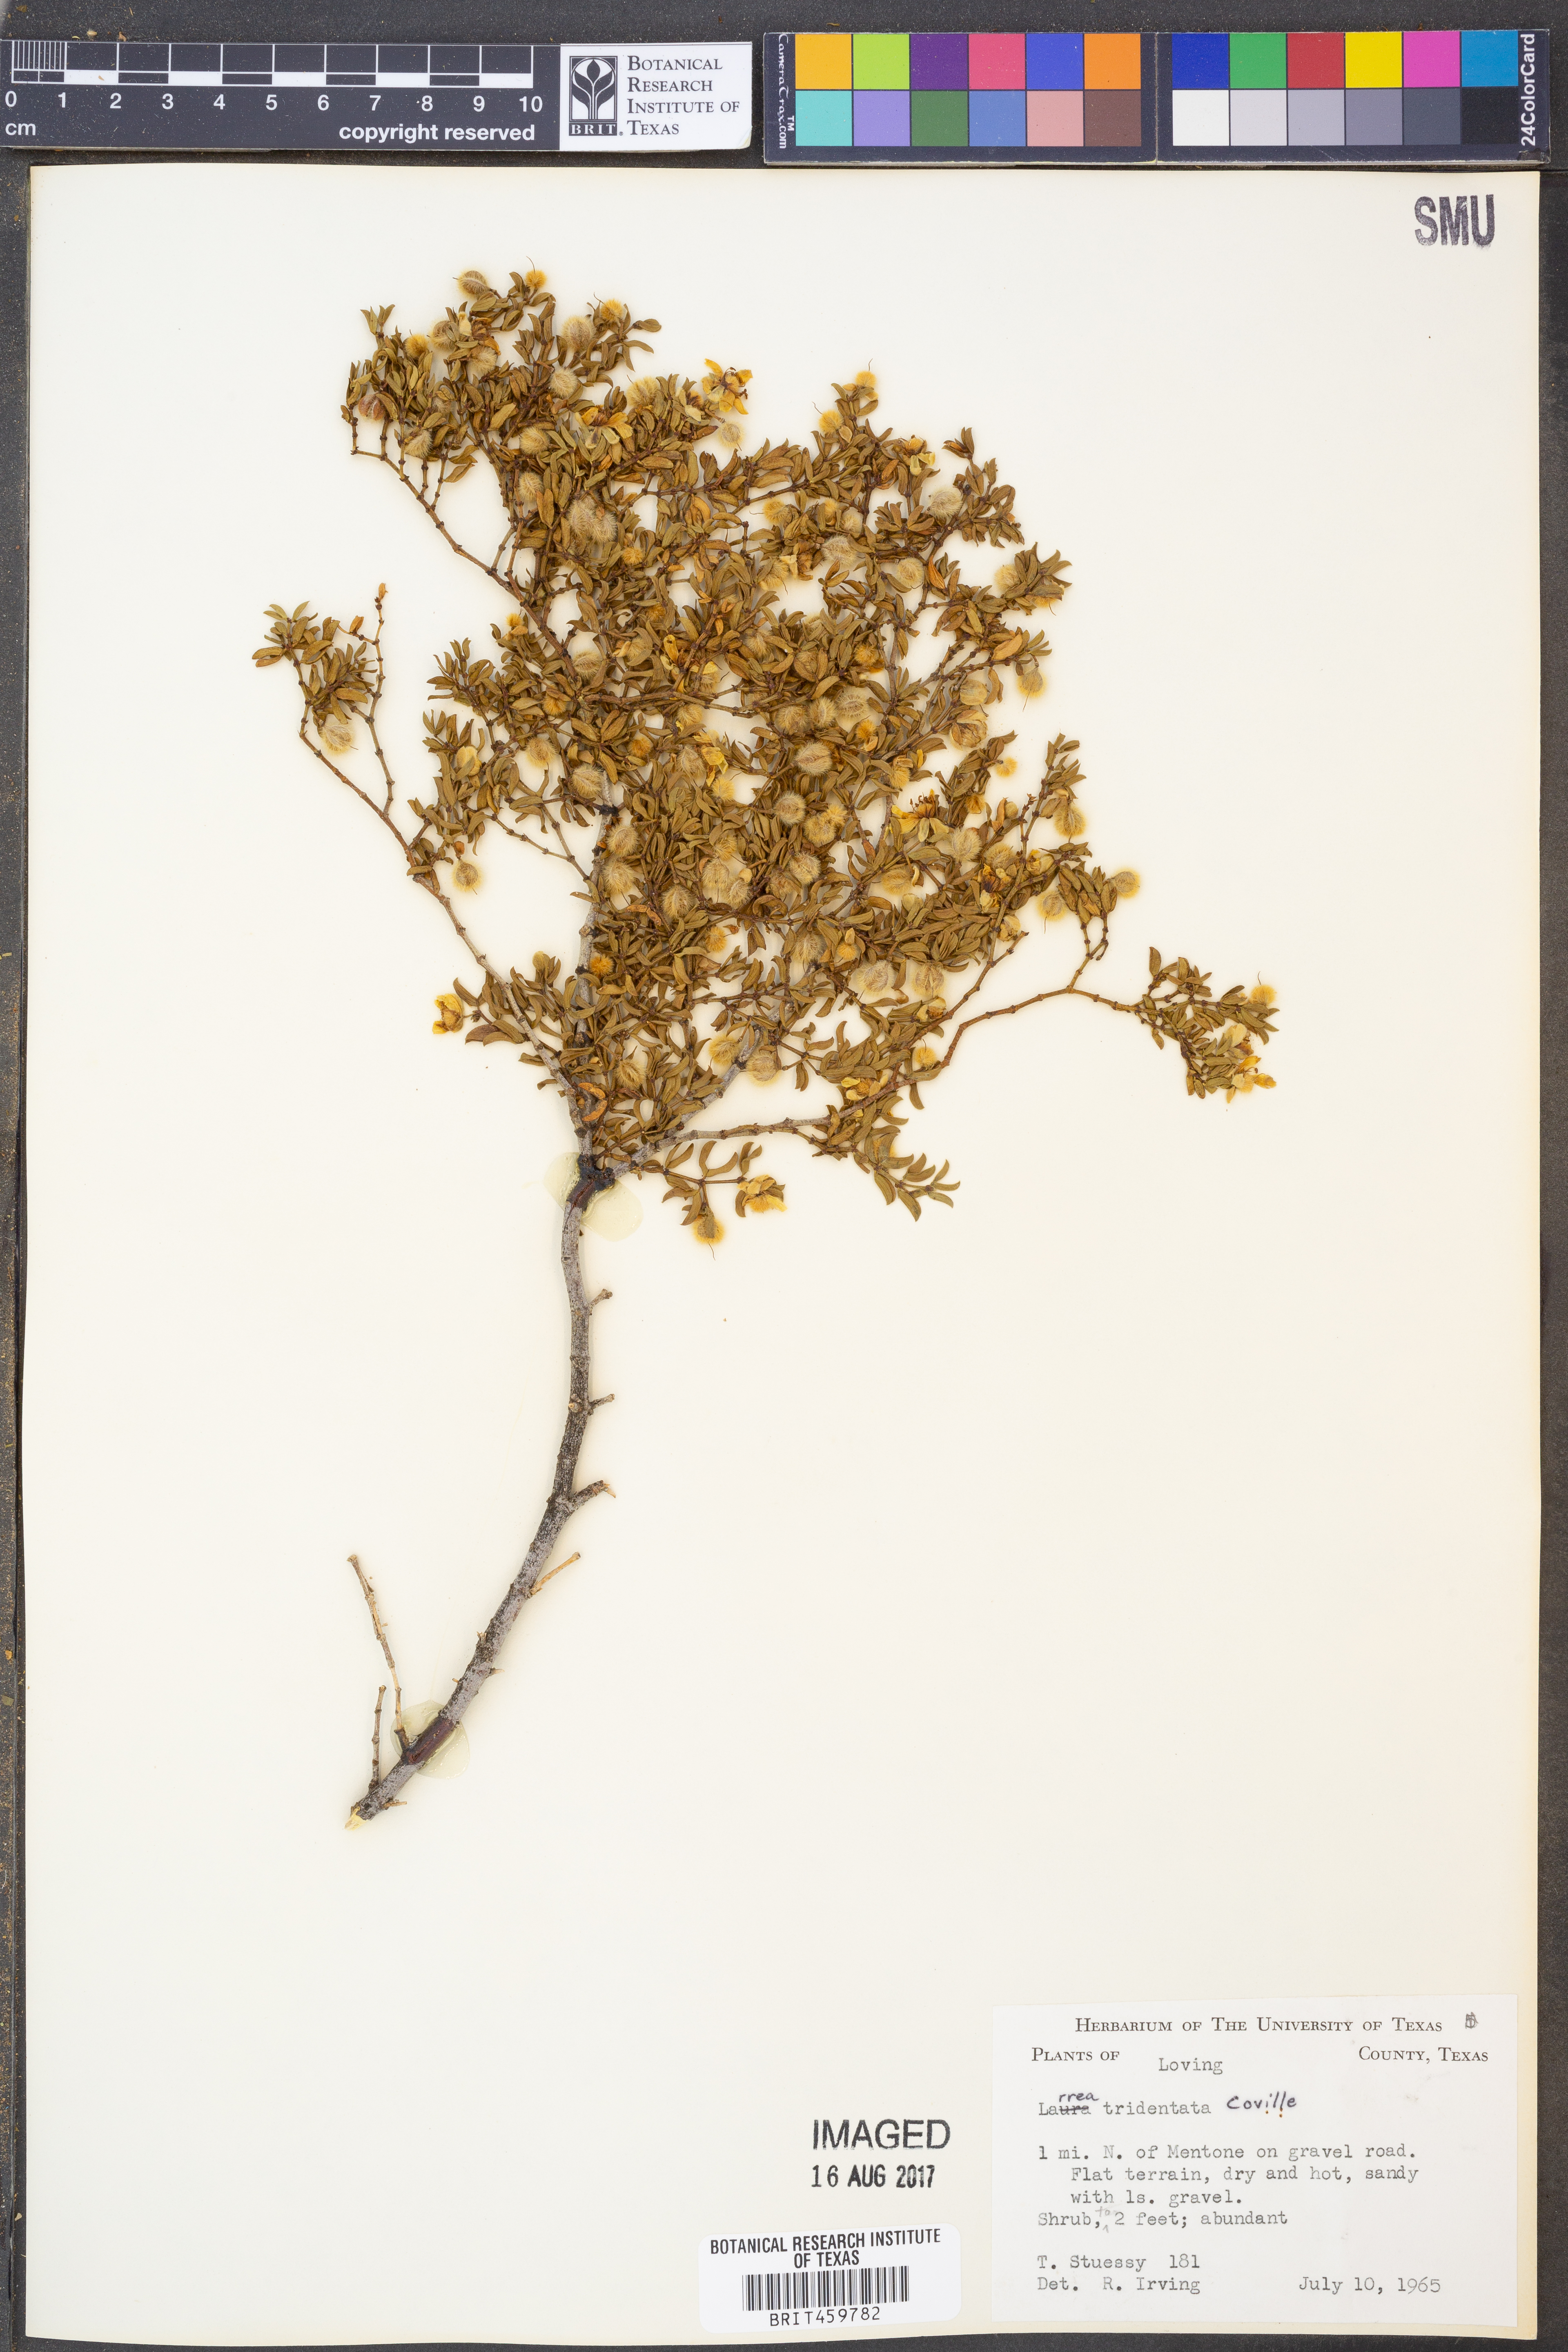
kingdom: Plantae
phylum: Tracheophyta
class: Magnoliopsida
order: Zygophyllales
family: Zygophyllaceae
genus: Larrea
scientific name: Larrea tridentata
